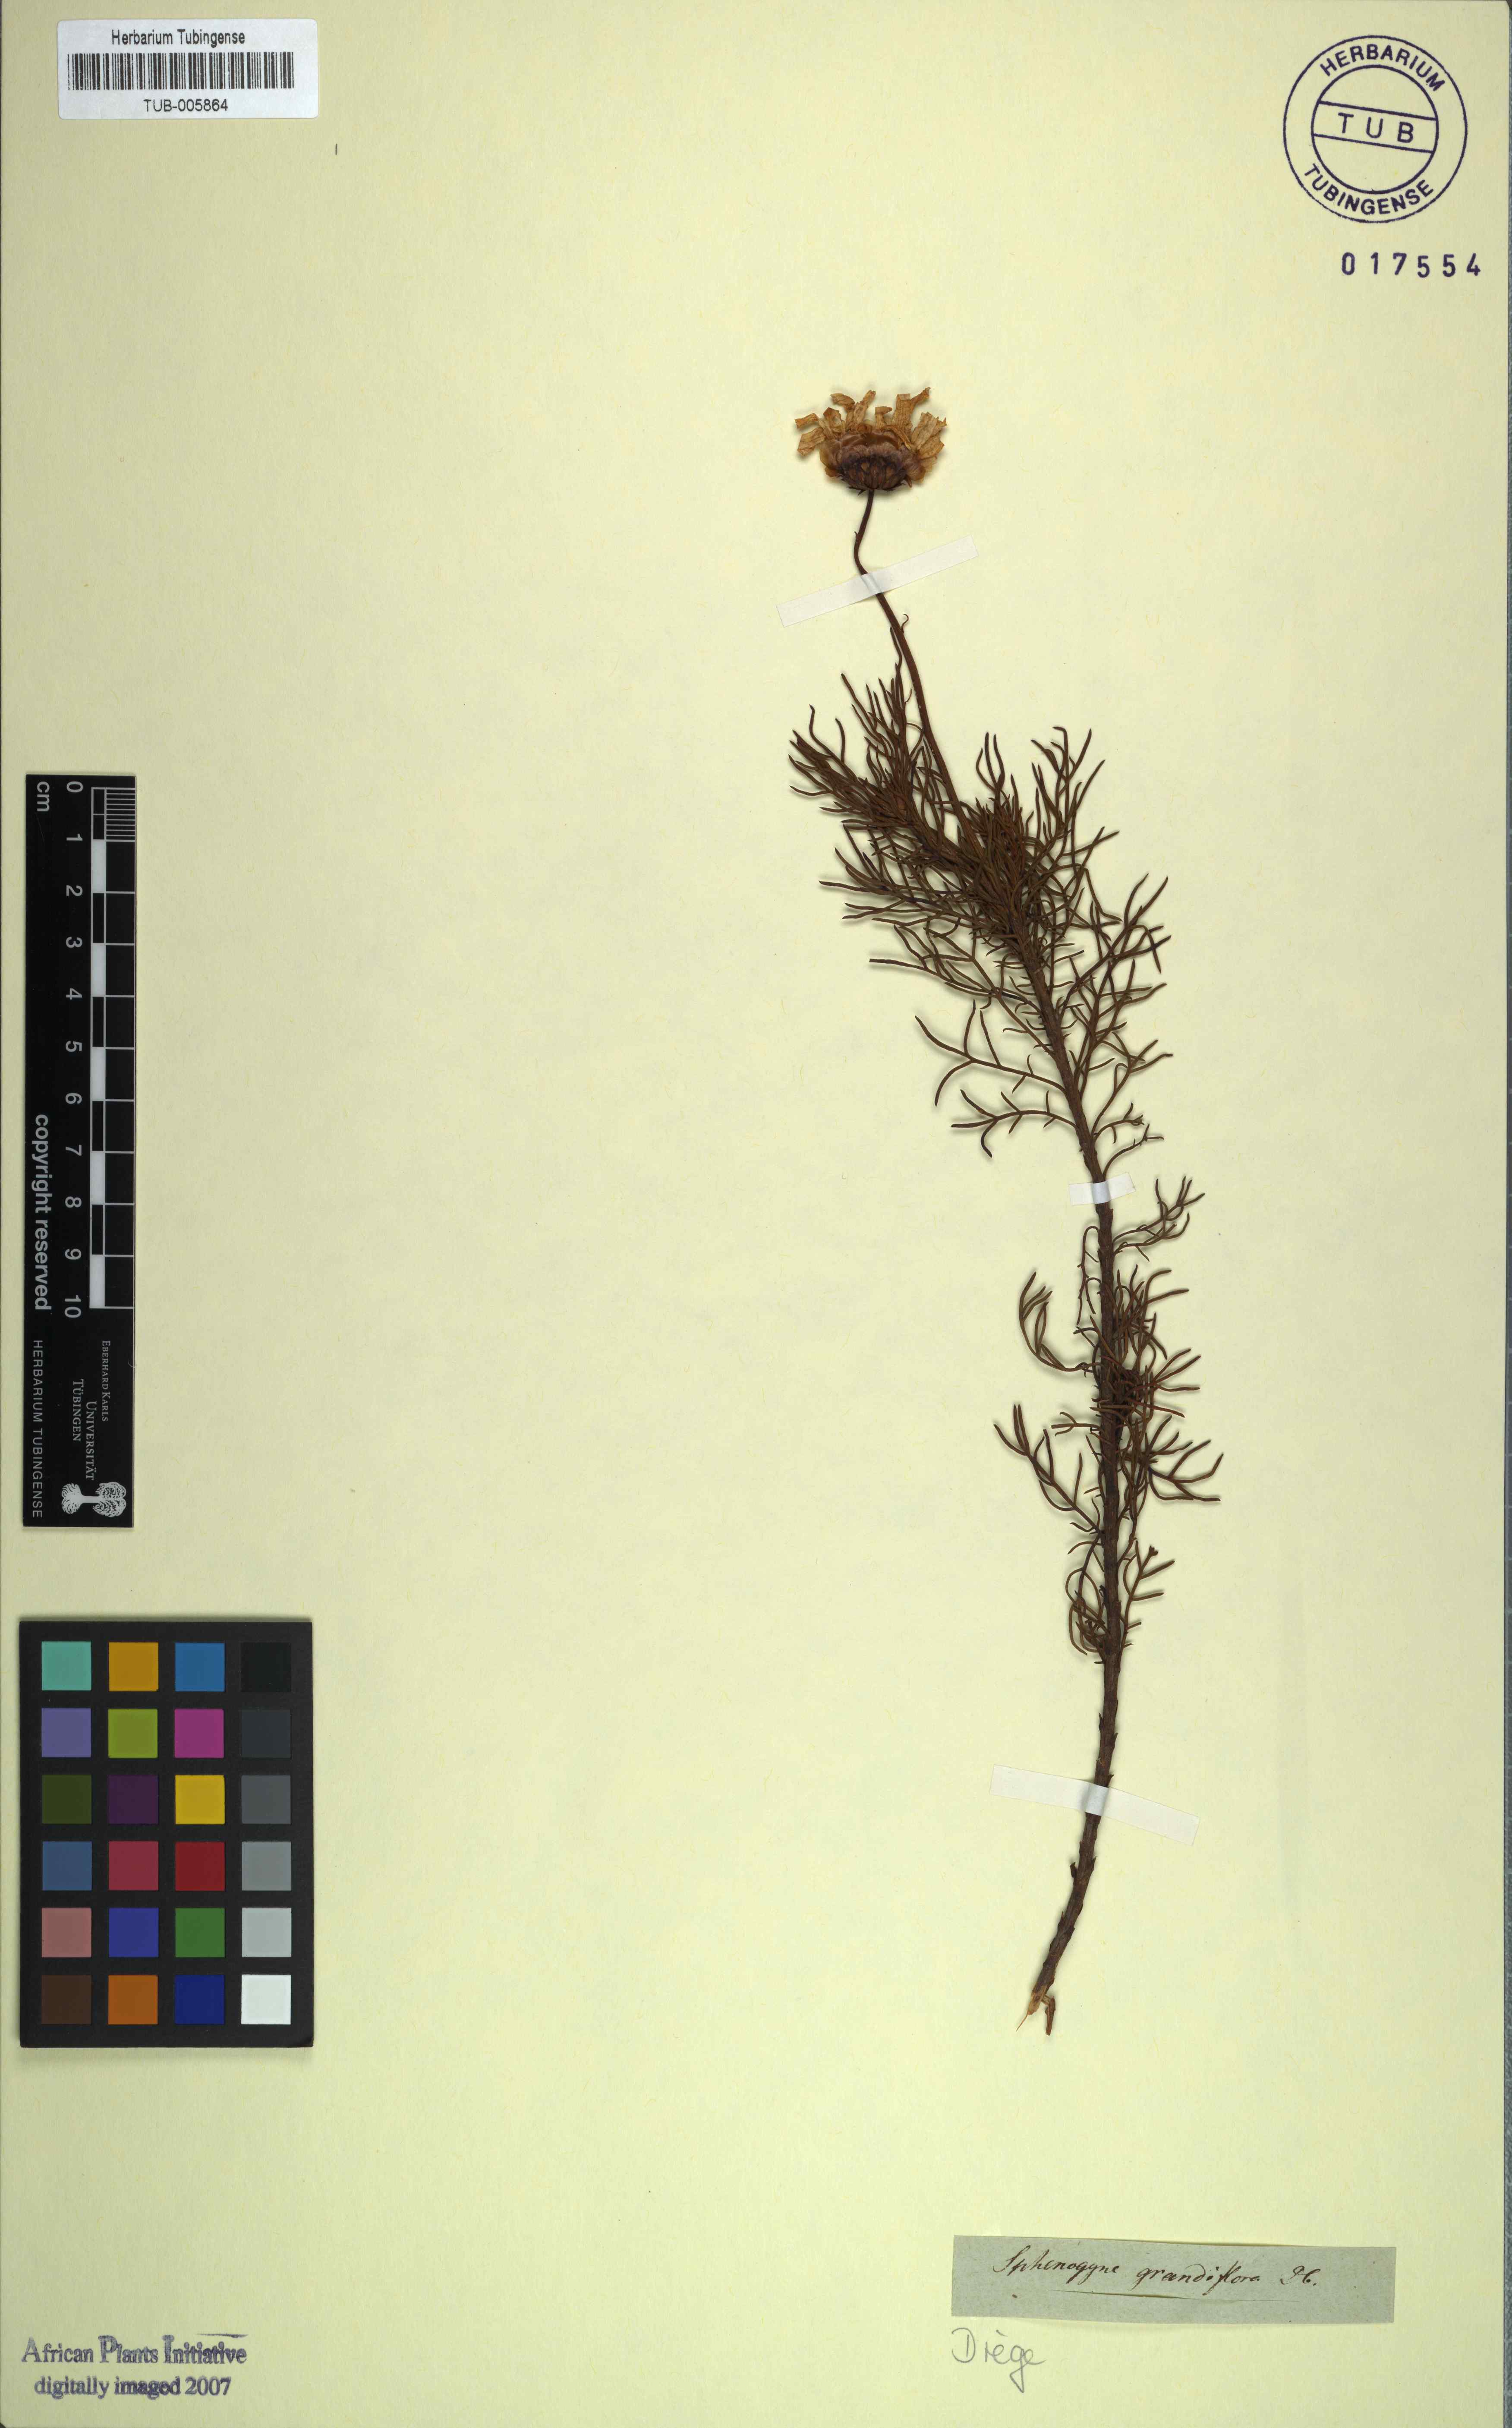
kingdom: Plantae
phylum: Tracheophyta
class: Magnoliopsida
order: Asterales
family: Asteraceae
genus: Ursinia
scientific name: Ursinia paleacea
